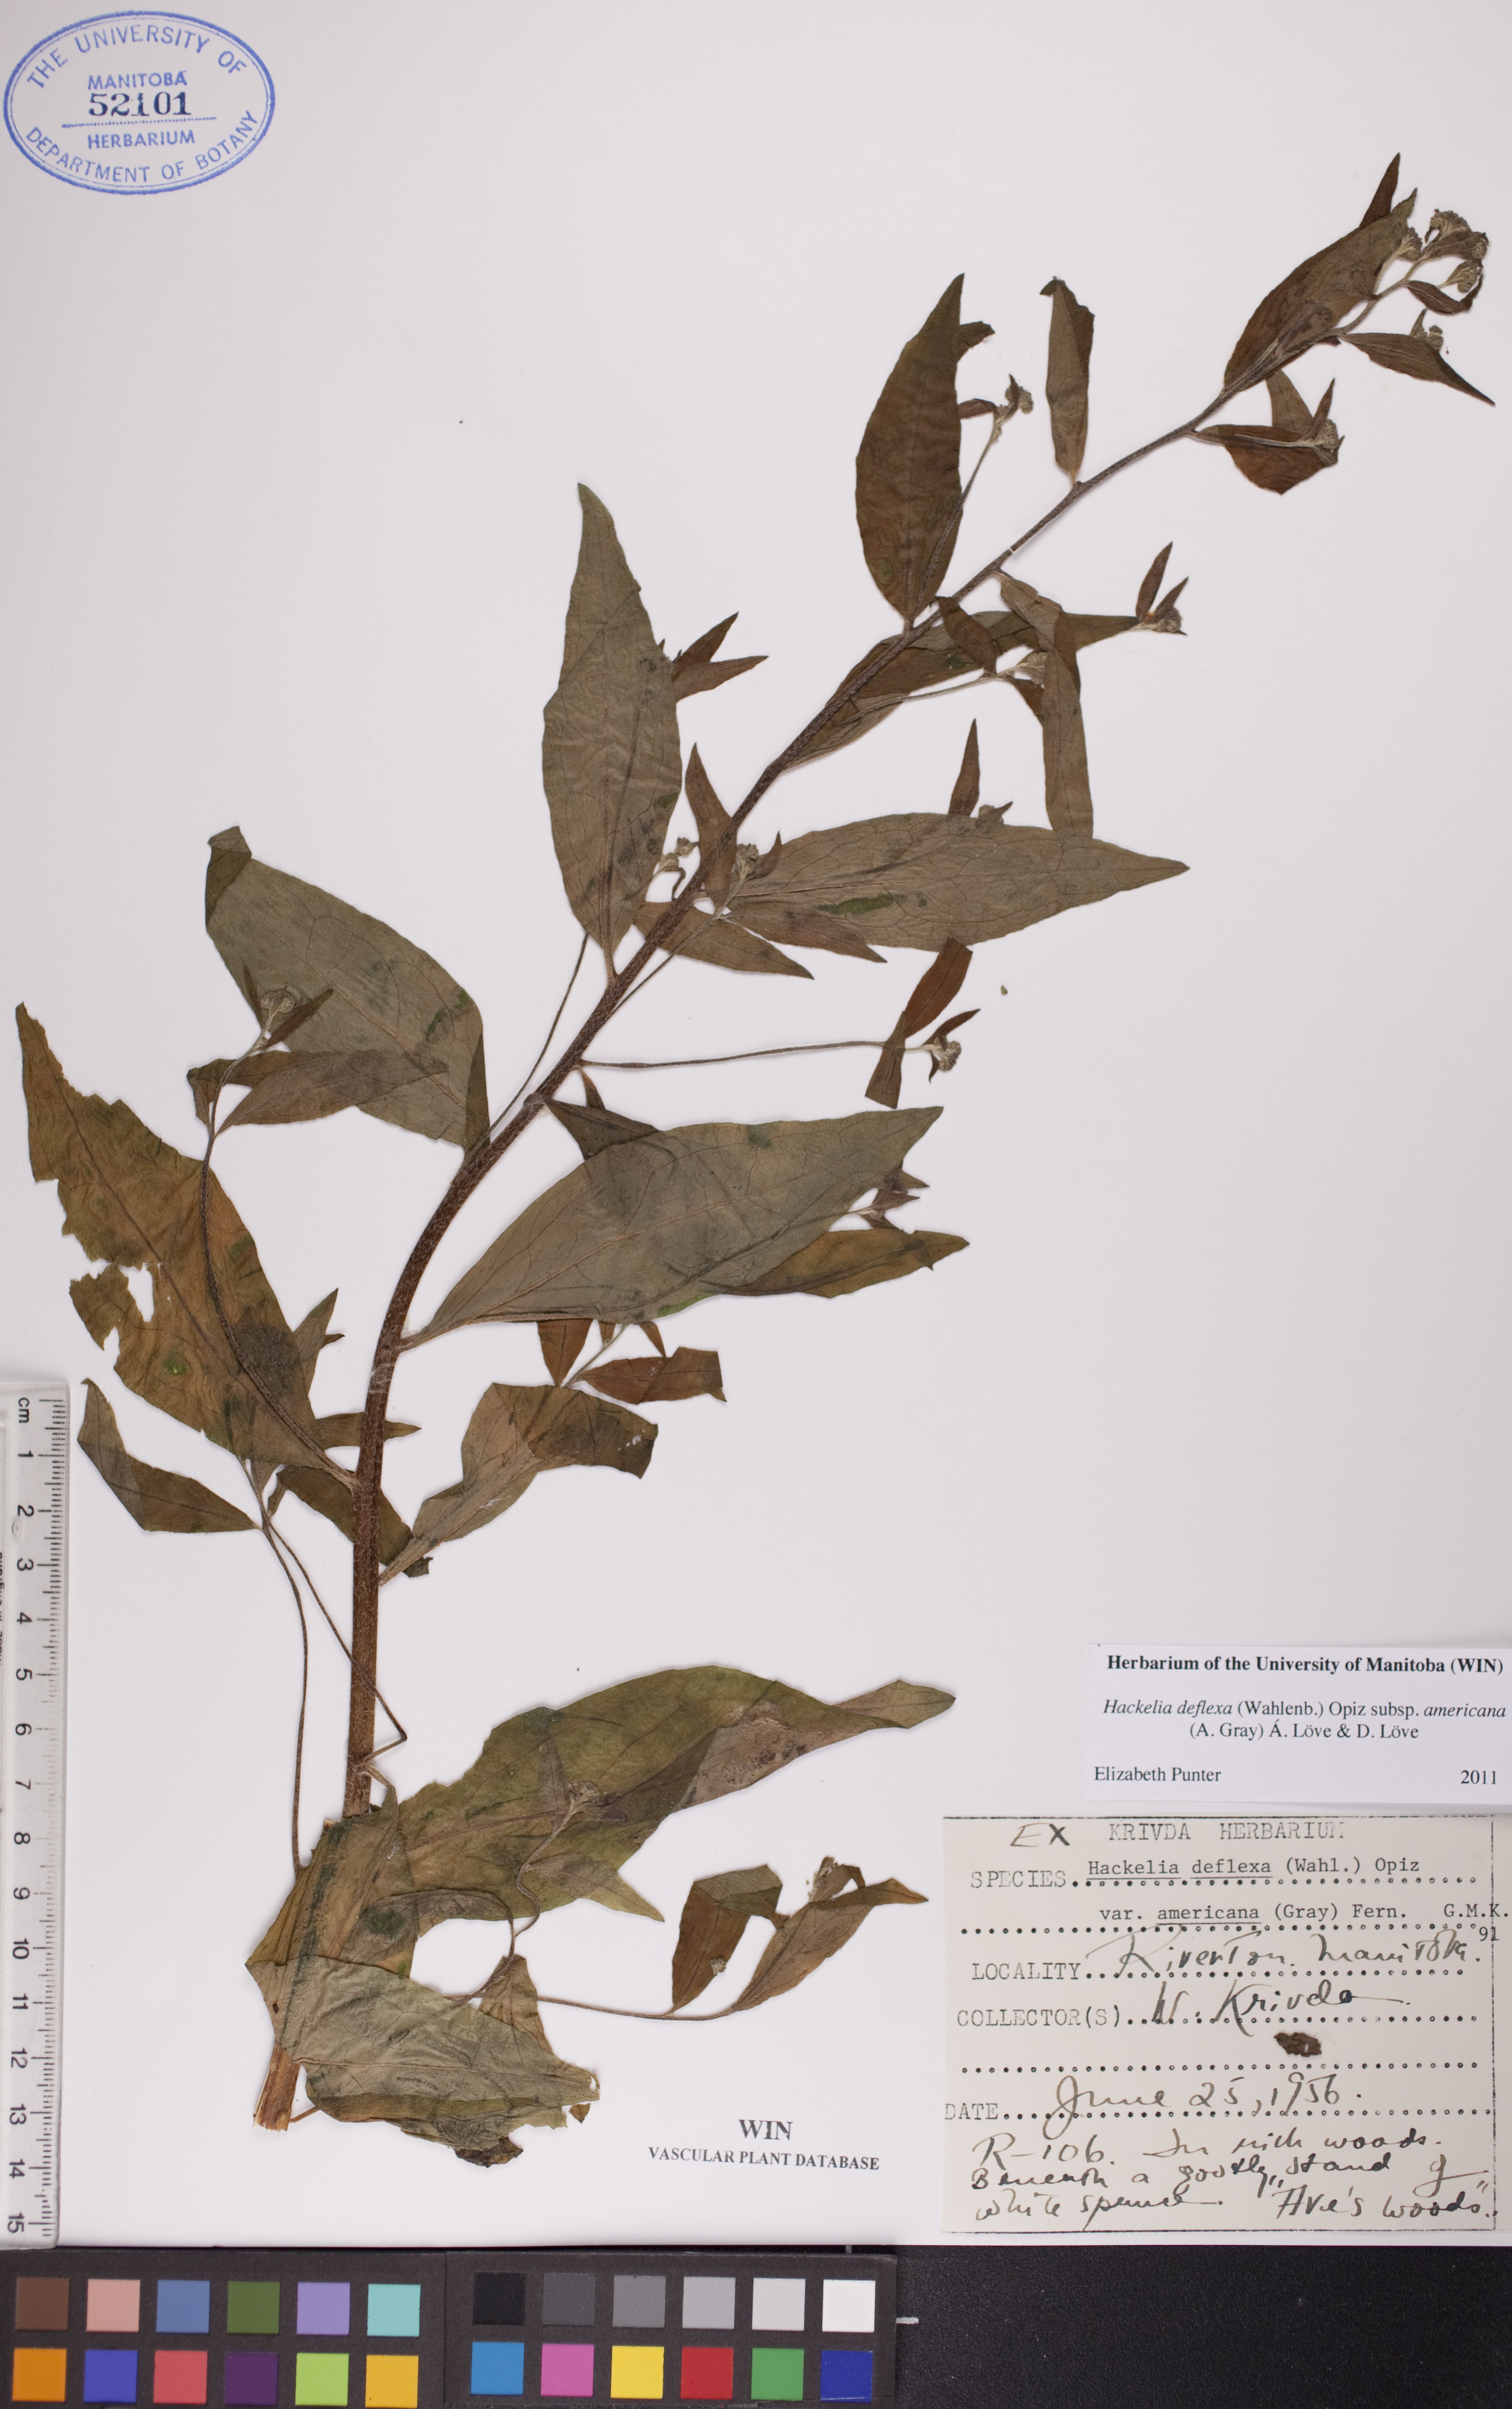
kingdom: Plantae
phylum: Tracheophyta
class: Magnoliopsida
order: Boraginales
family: Boraginaceae
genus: Hackelia
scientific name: Hackelia deflexa
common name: Nodding stickseed
